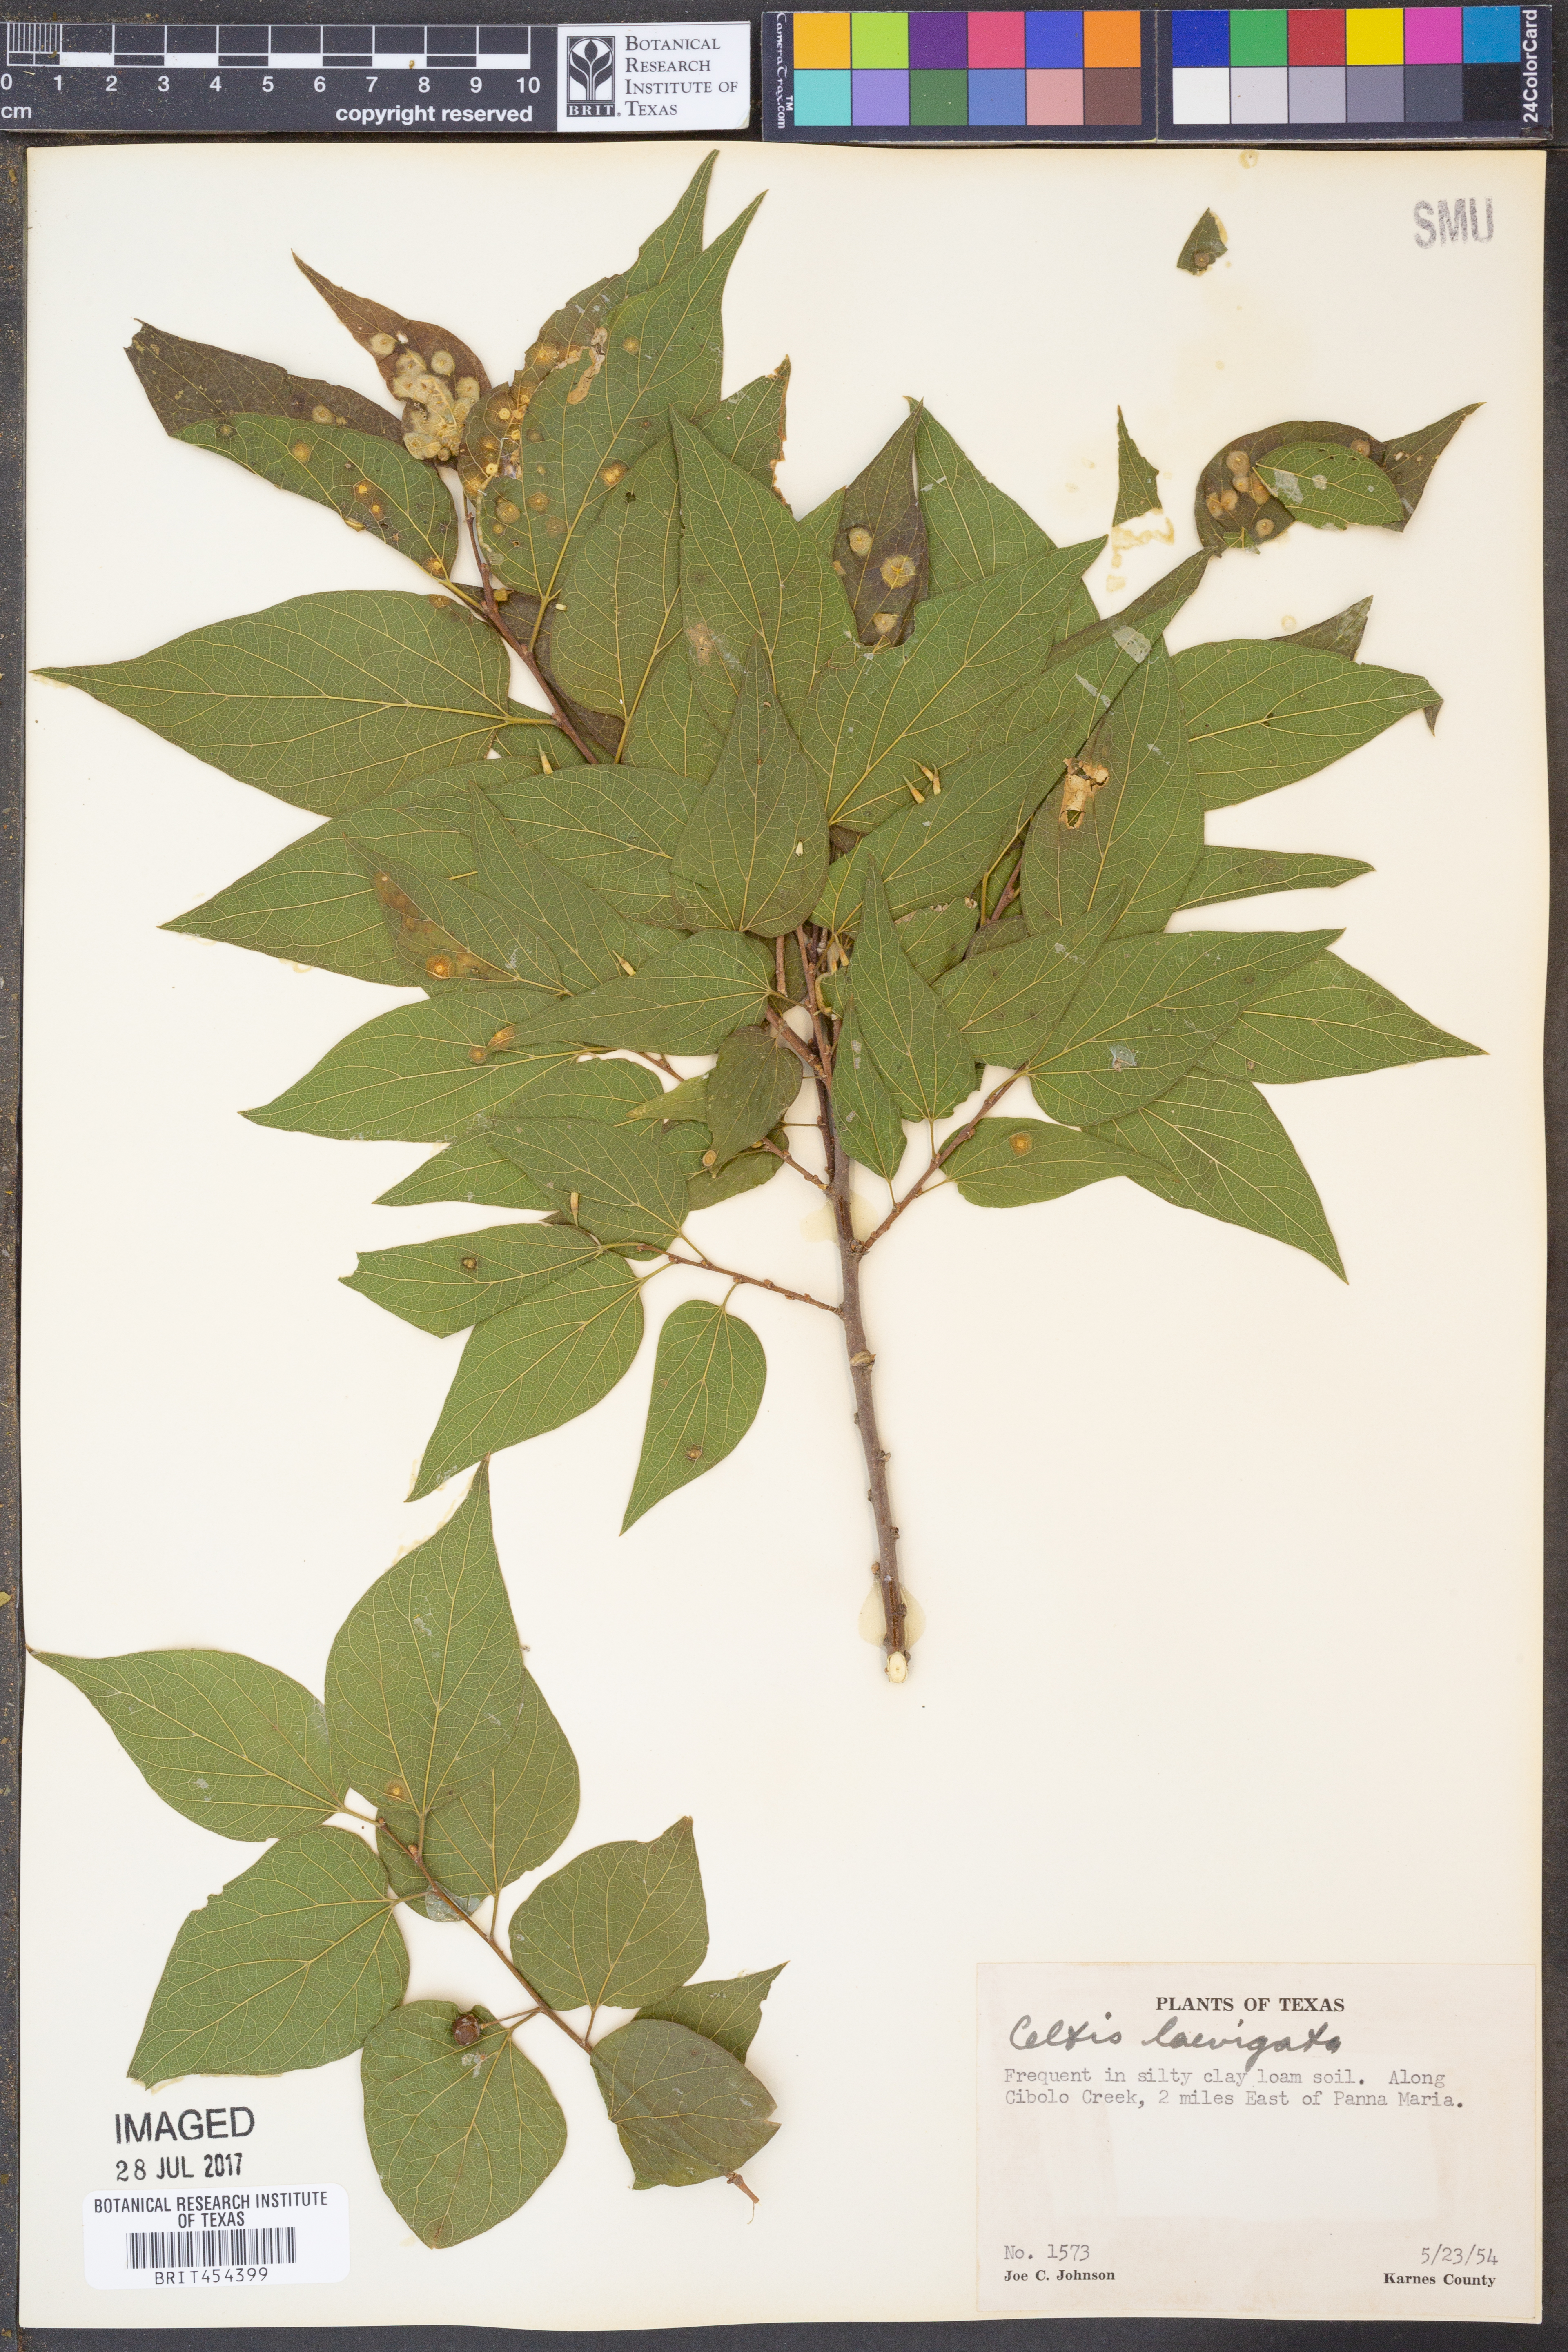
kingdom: Plantae
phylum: Tracheophyta
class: Magnoliopsida
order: Rosales
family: Cannabaceae
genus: Celtis
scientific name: Celtis laevigata
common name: Sugarberry
